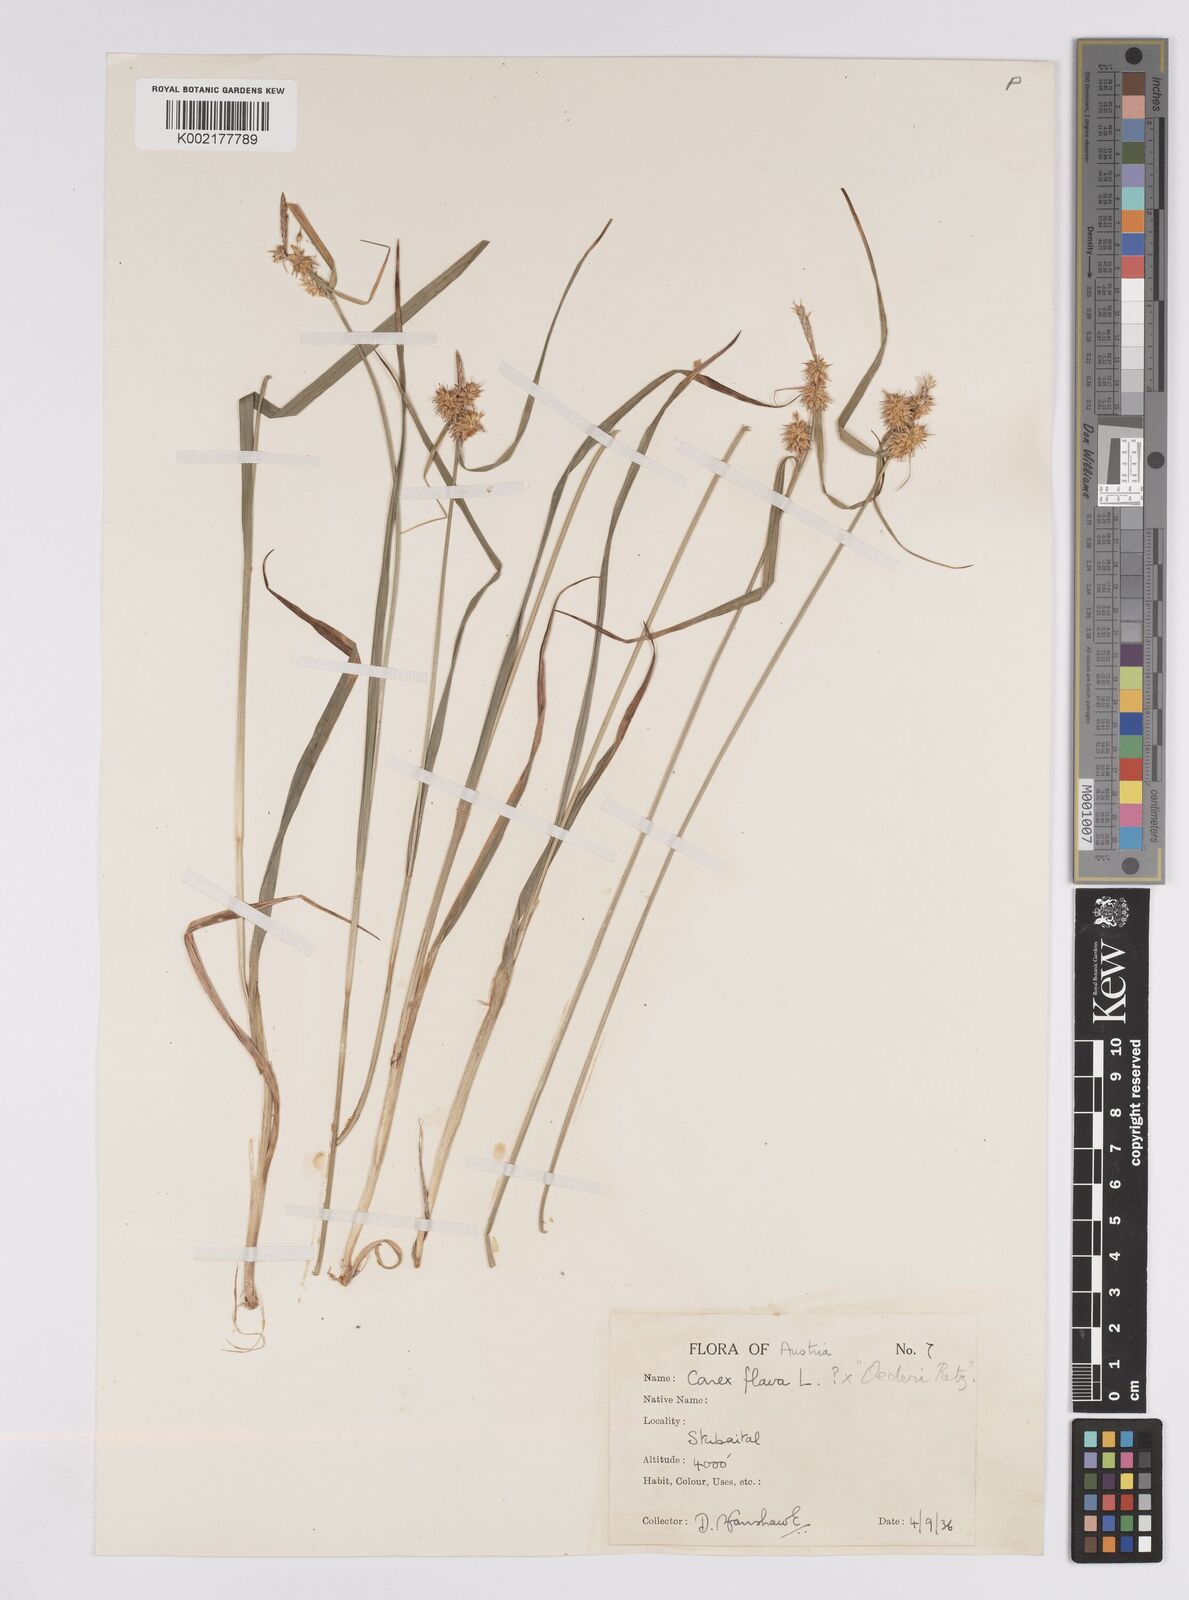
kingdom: Plantae
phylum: Tracheophyta
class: Liliopsida
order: Poales
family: Cyperaceae
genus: Carex
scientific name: Carex flava
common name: Large yellow-sedge
